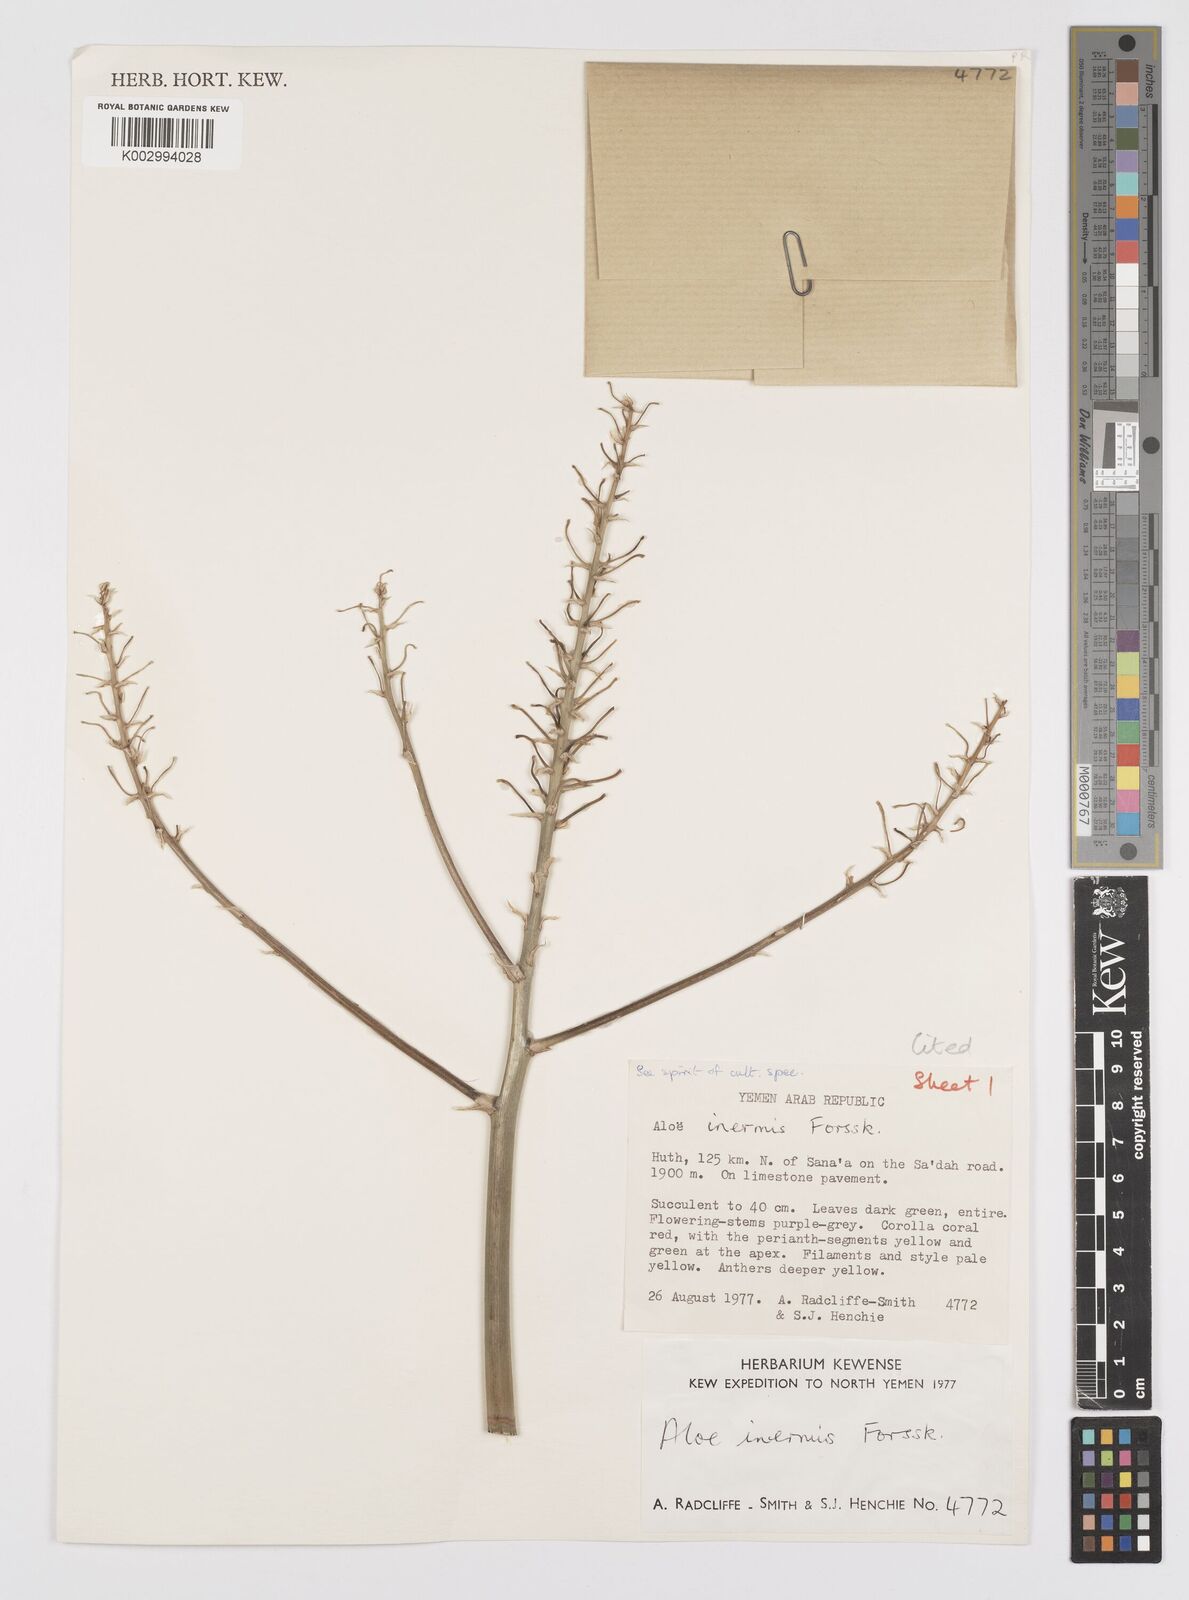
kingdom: Plantae
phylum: Tracheophyta
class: Liliopsida
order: Asparagales
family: Asphodelaceae
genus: Aloe
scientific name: Aloe fleurentiniorum
